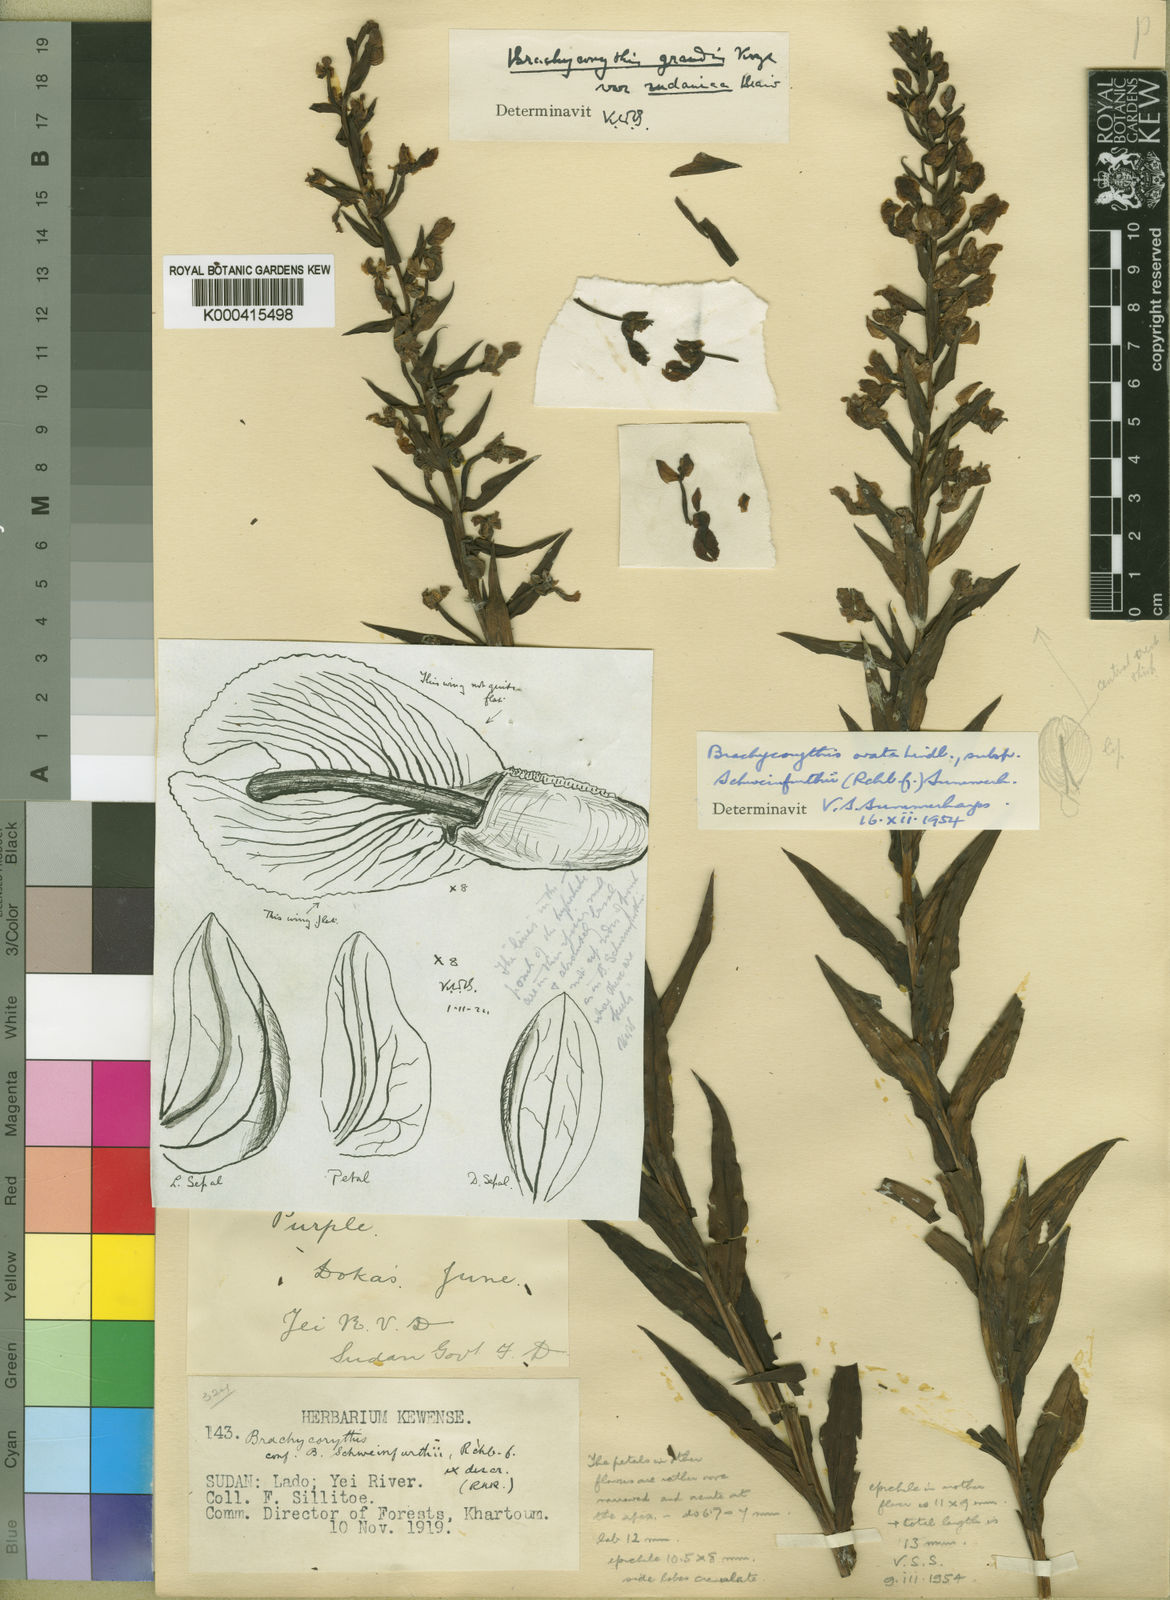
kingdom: Plantae
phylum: Tracheophyta
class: Liliopsida
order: Asparagales
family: Orchidaceae
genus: Brachycorythis
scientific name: Brachycorythis ovata
